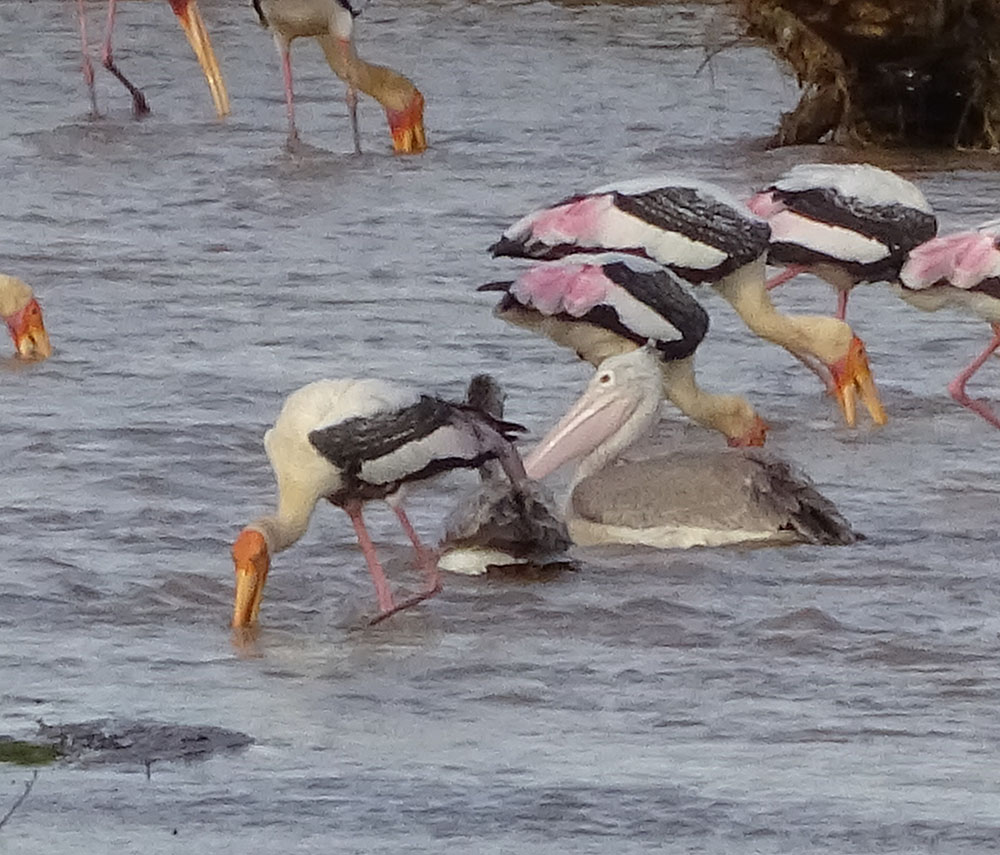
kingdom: Animalia
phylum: Chordata
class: Aves
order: Pelecaniformes
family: Pelecanidae
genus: Pelecanus
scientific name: Pelecanus philippensis
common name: Spot-billed pelican
